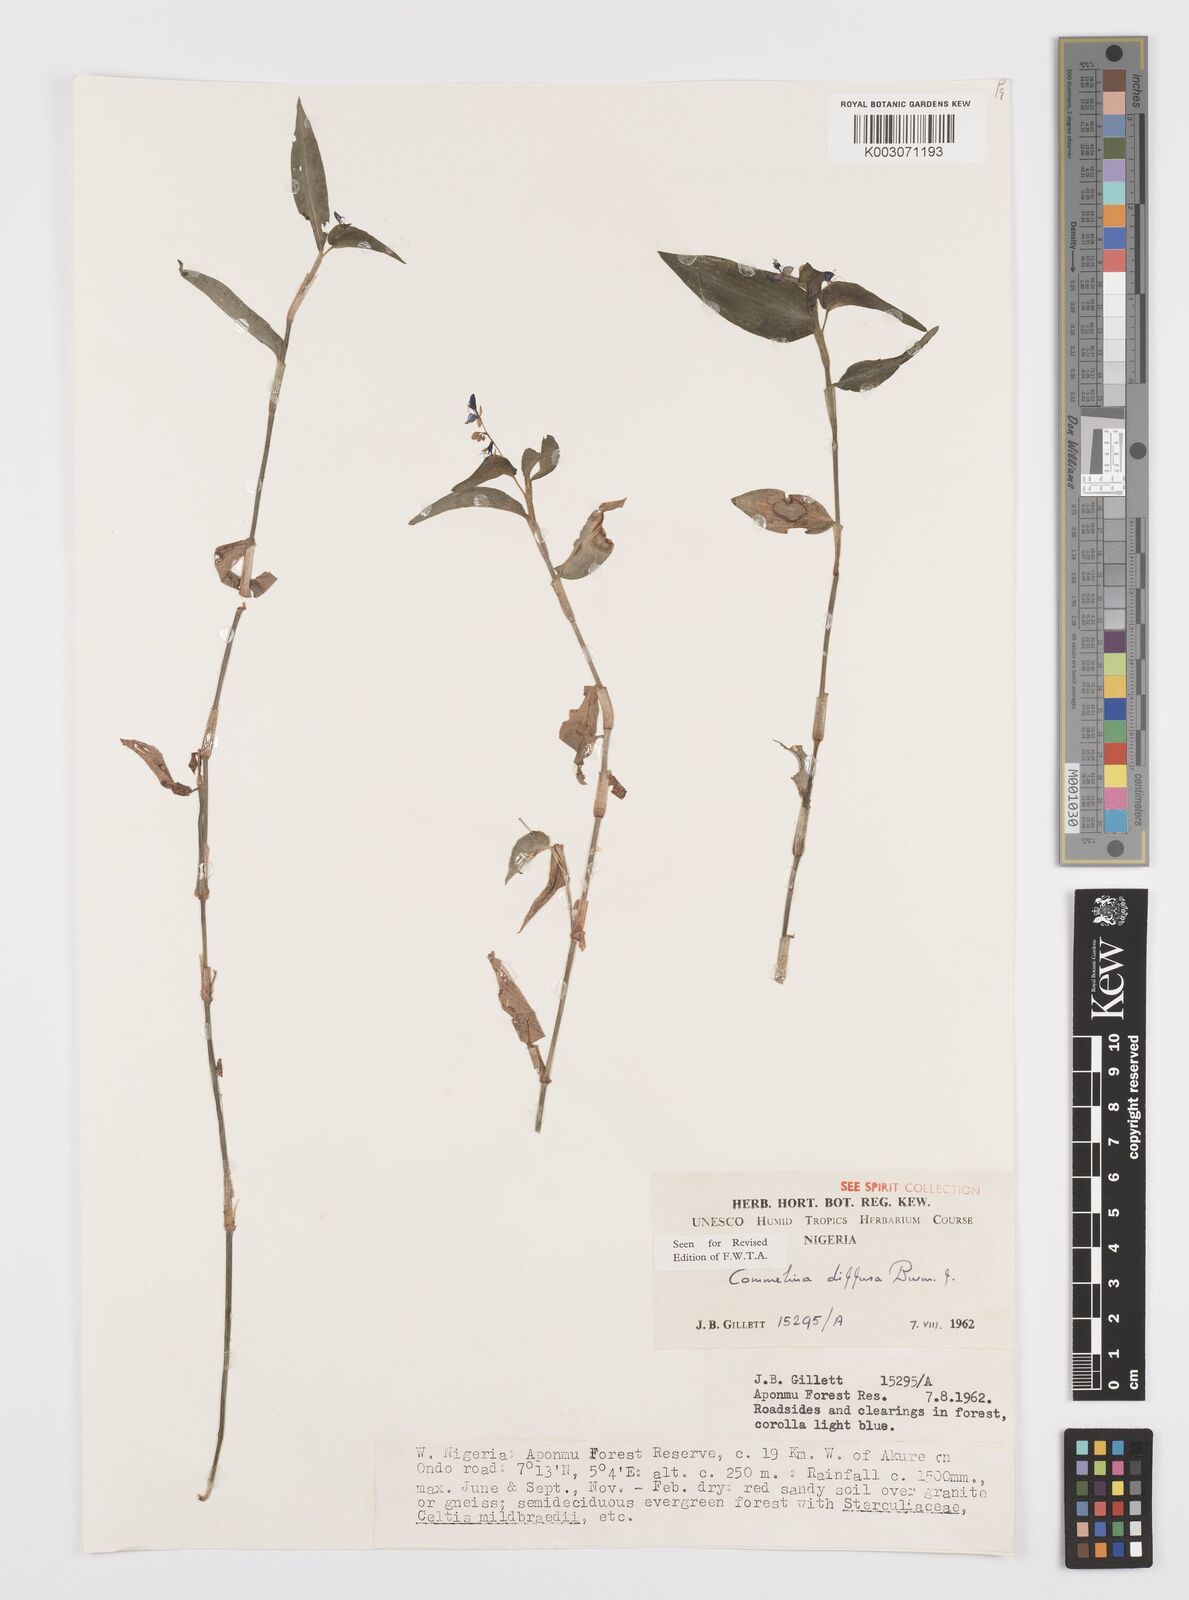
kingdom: Plantae
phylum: Tracheophyta
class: Liliopsida
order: Commelinales
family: Commelinaceae
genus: Commelina
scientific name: Commelina diffusa
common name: Climbing dayflower
